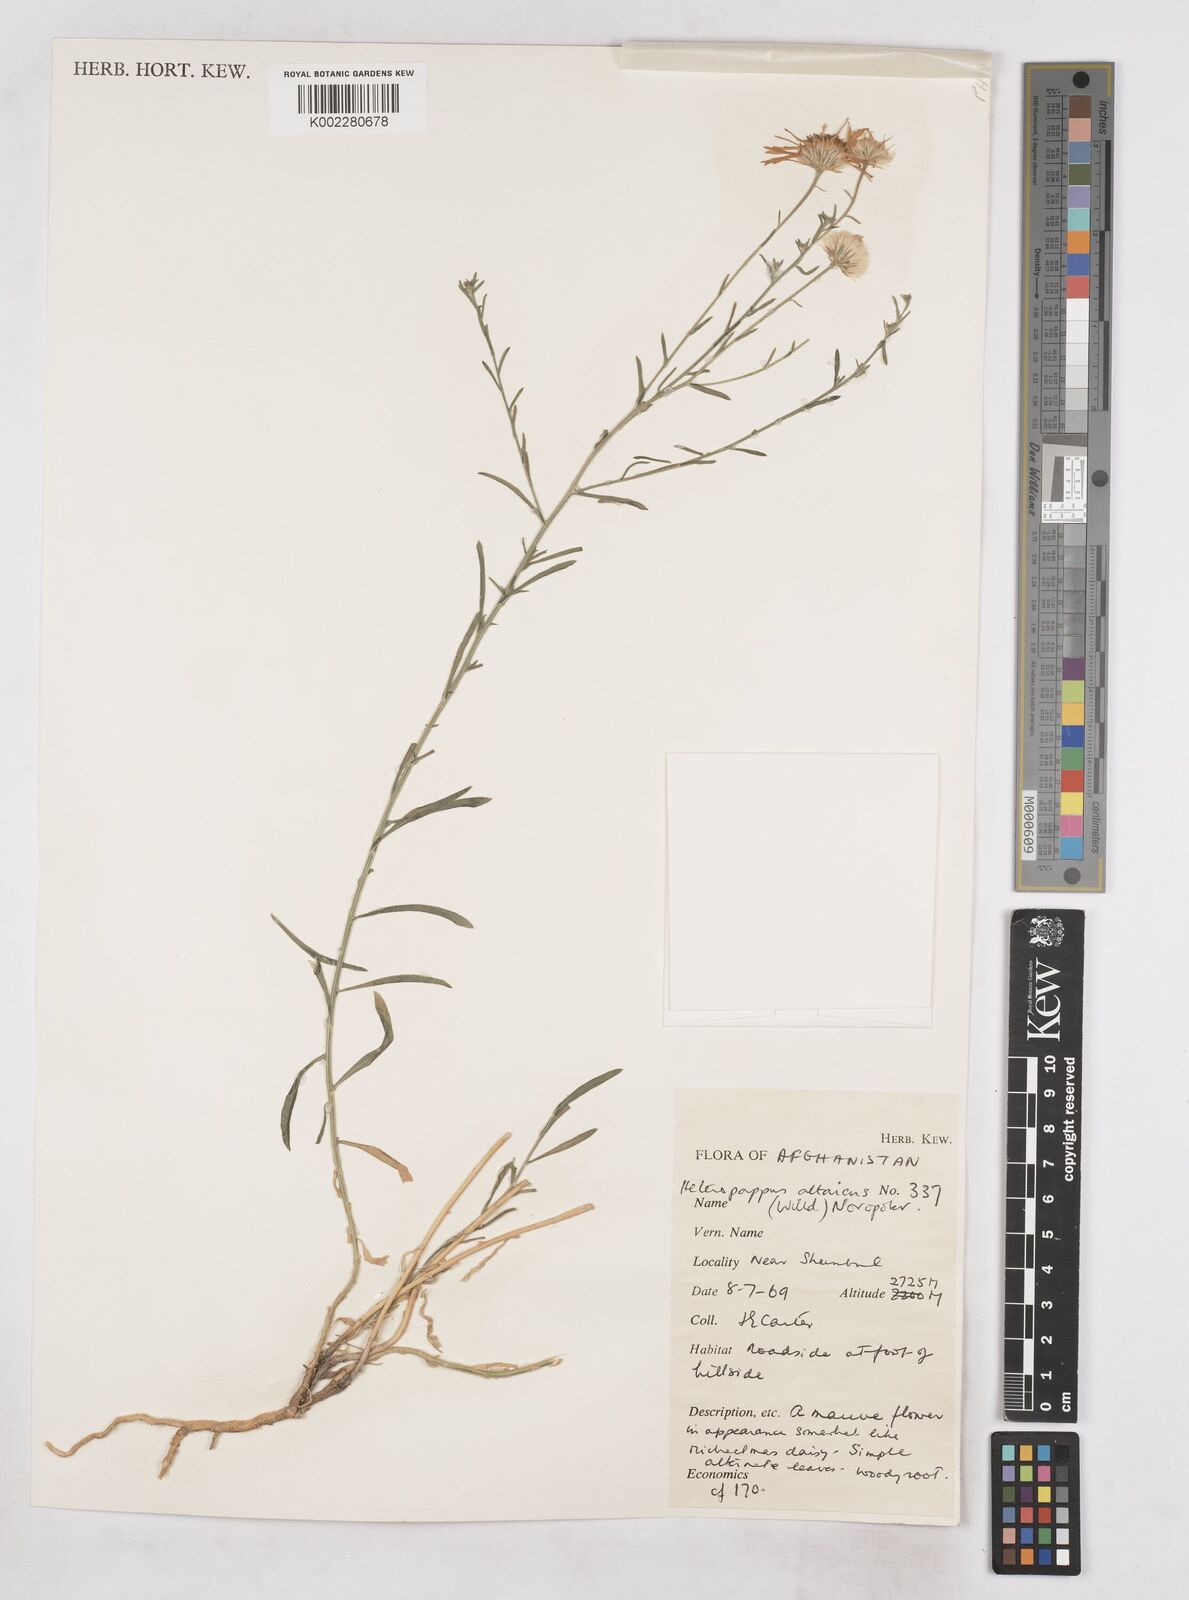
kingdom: Plantae
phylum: Tracheophyta
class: Magnoliopsida
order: Asterales
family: Asteraceae
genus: Heteropappus
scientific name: Heteropappus altaicus
